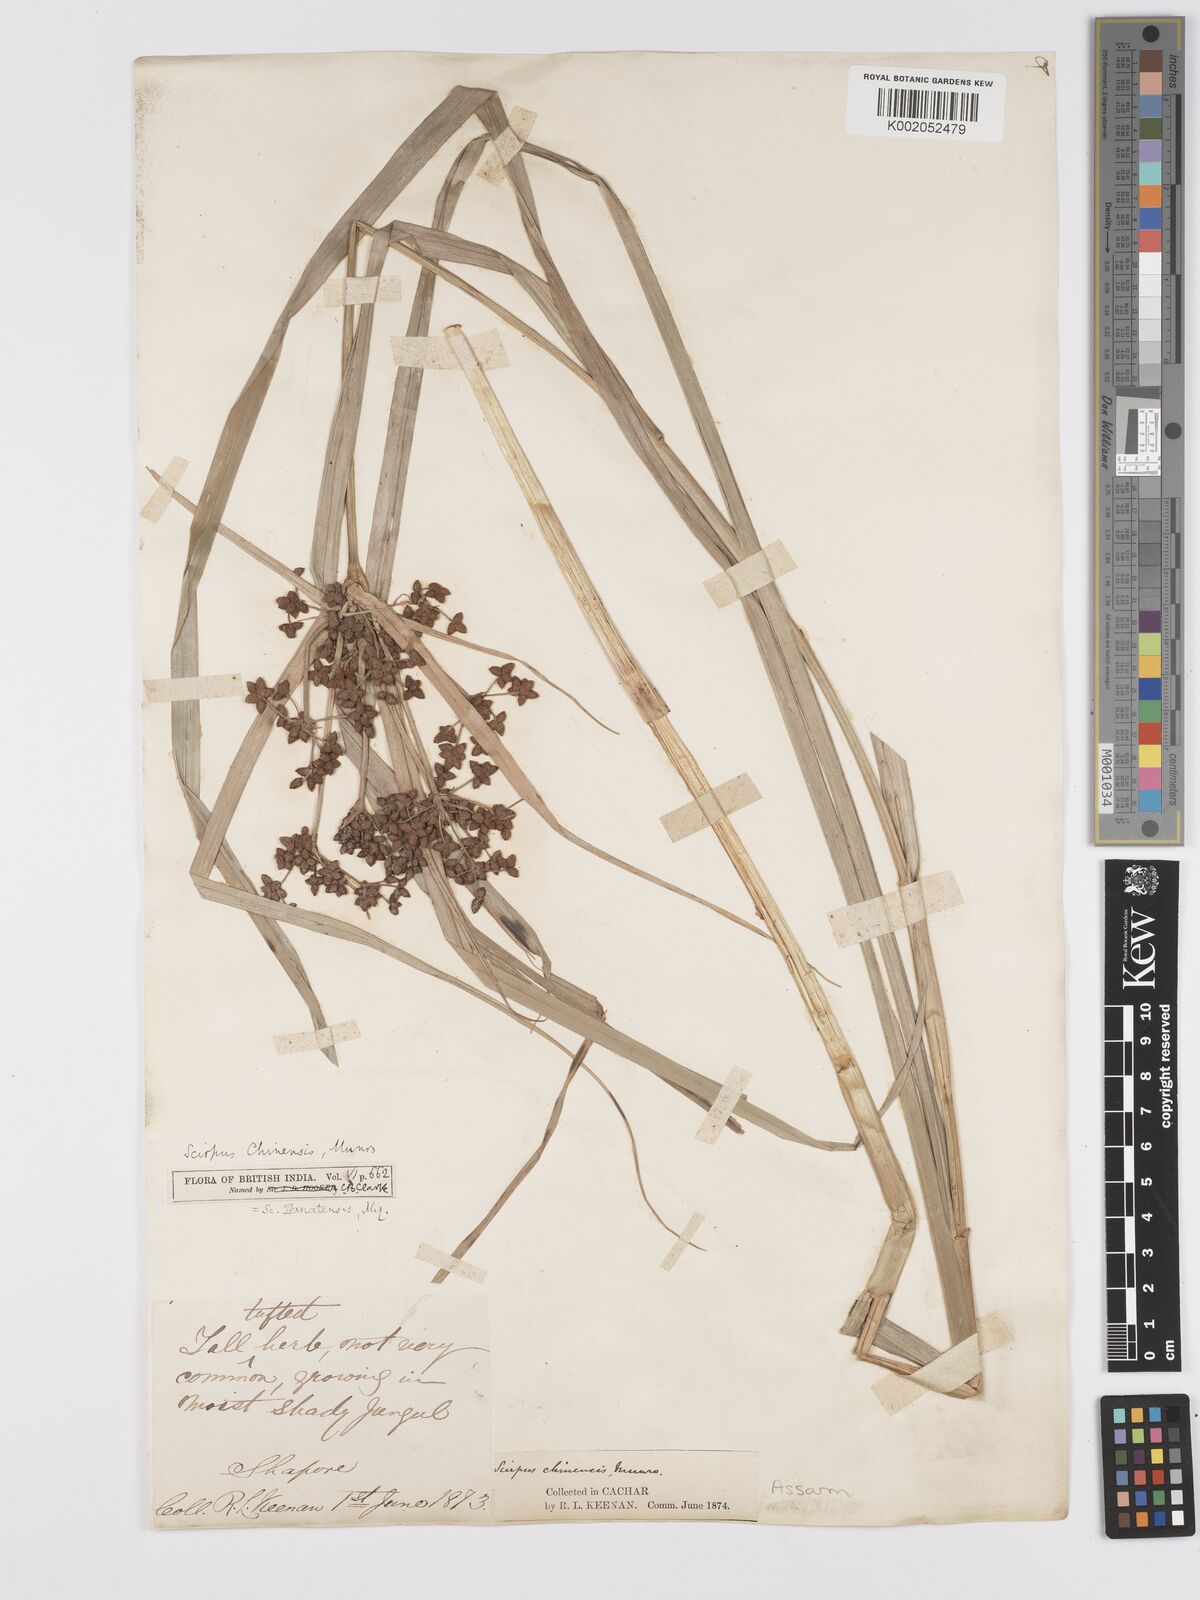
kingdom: Plantae
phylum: Tracheophyta
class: Liliopsida
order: Poales
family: Cyperaceae
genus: Scirpus
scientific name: Scirpus ternatanus
